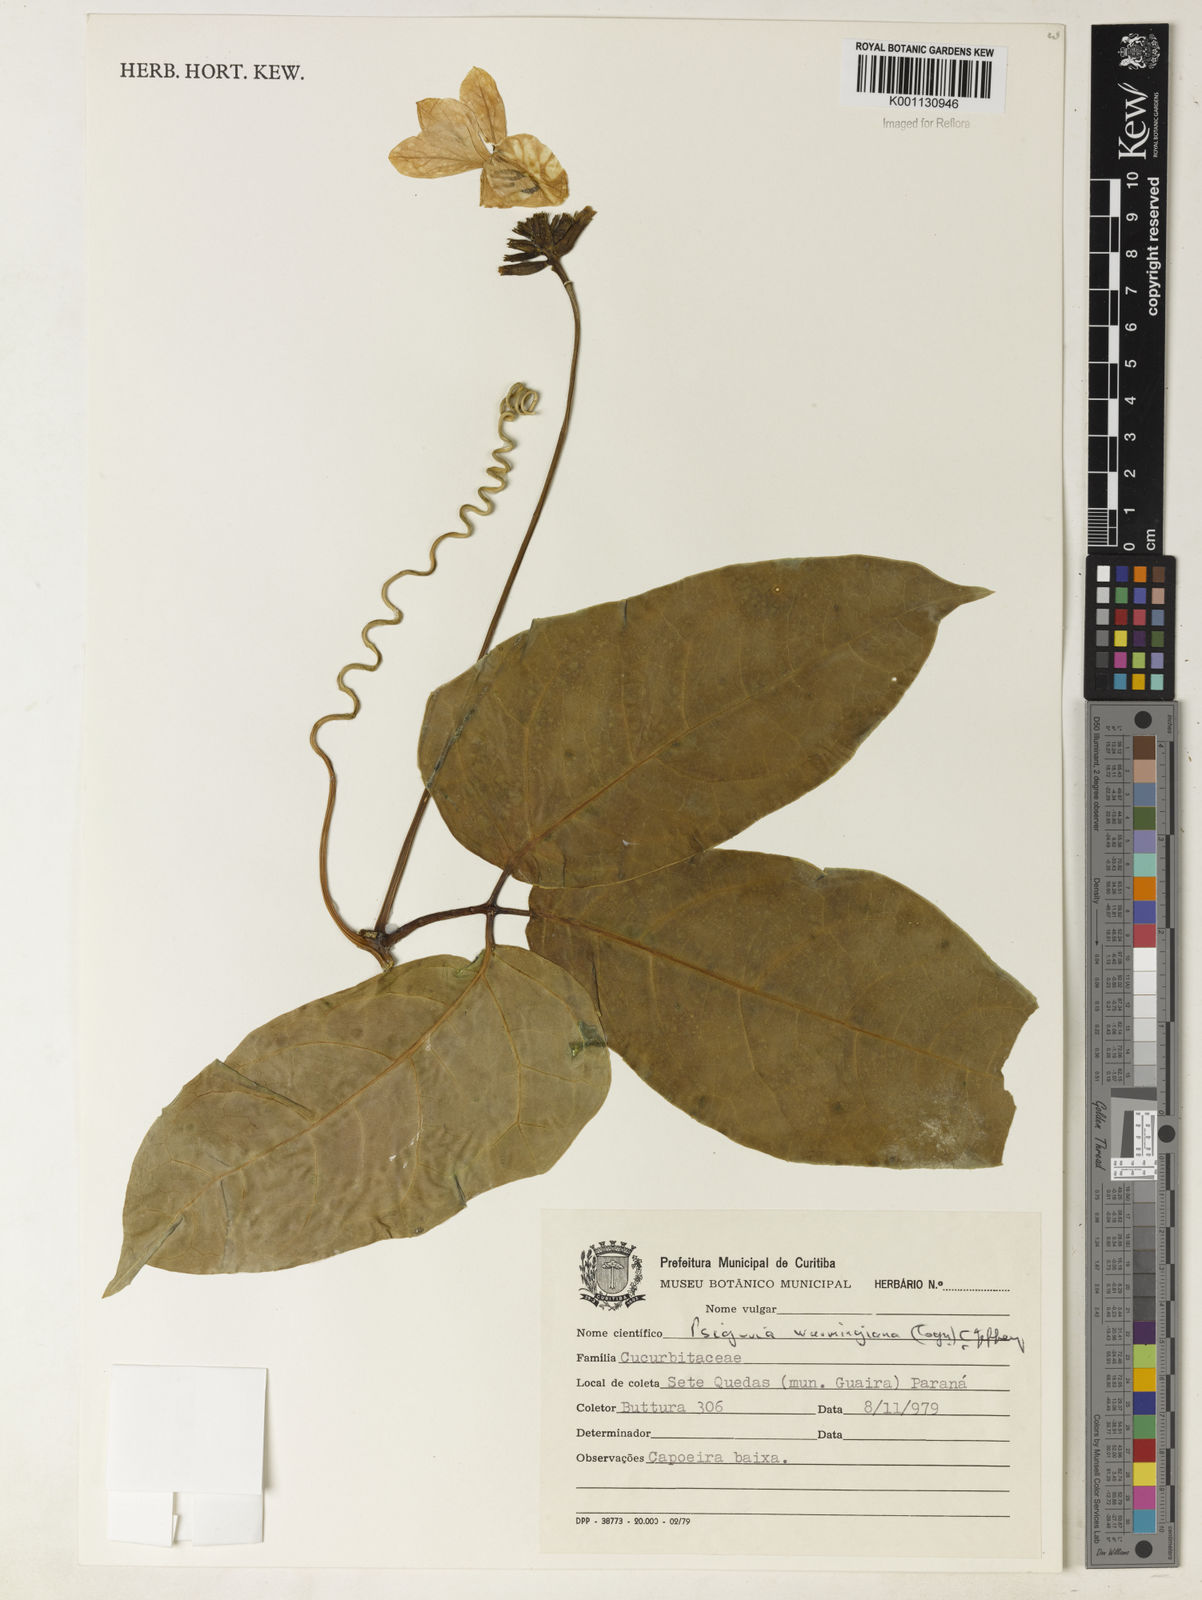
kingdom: Plantae
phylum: Tracheophyta
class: Magnoliopsida
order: Cucurbitales
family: Cucurbitaceae
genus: Psiguria
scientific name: Psiguria ternata
